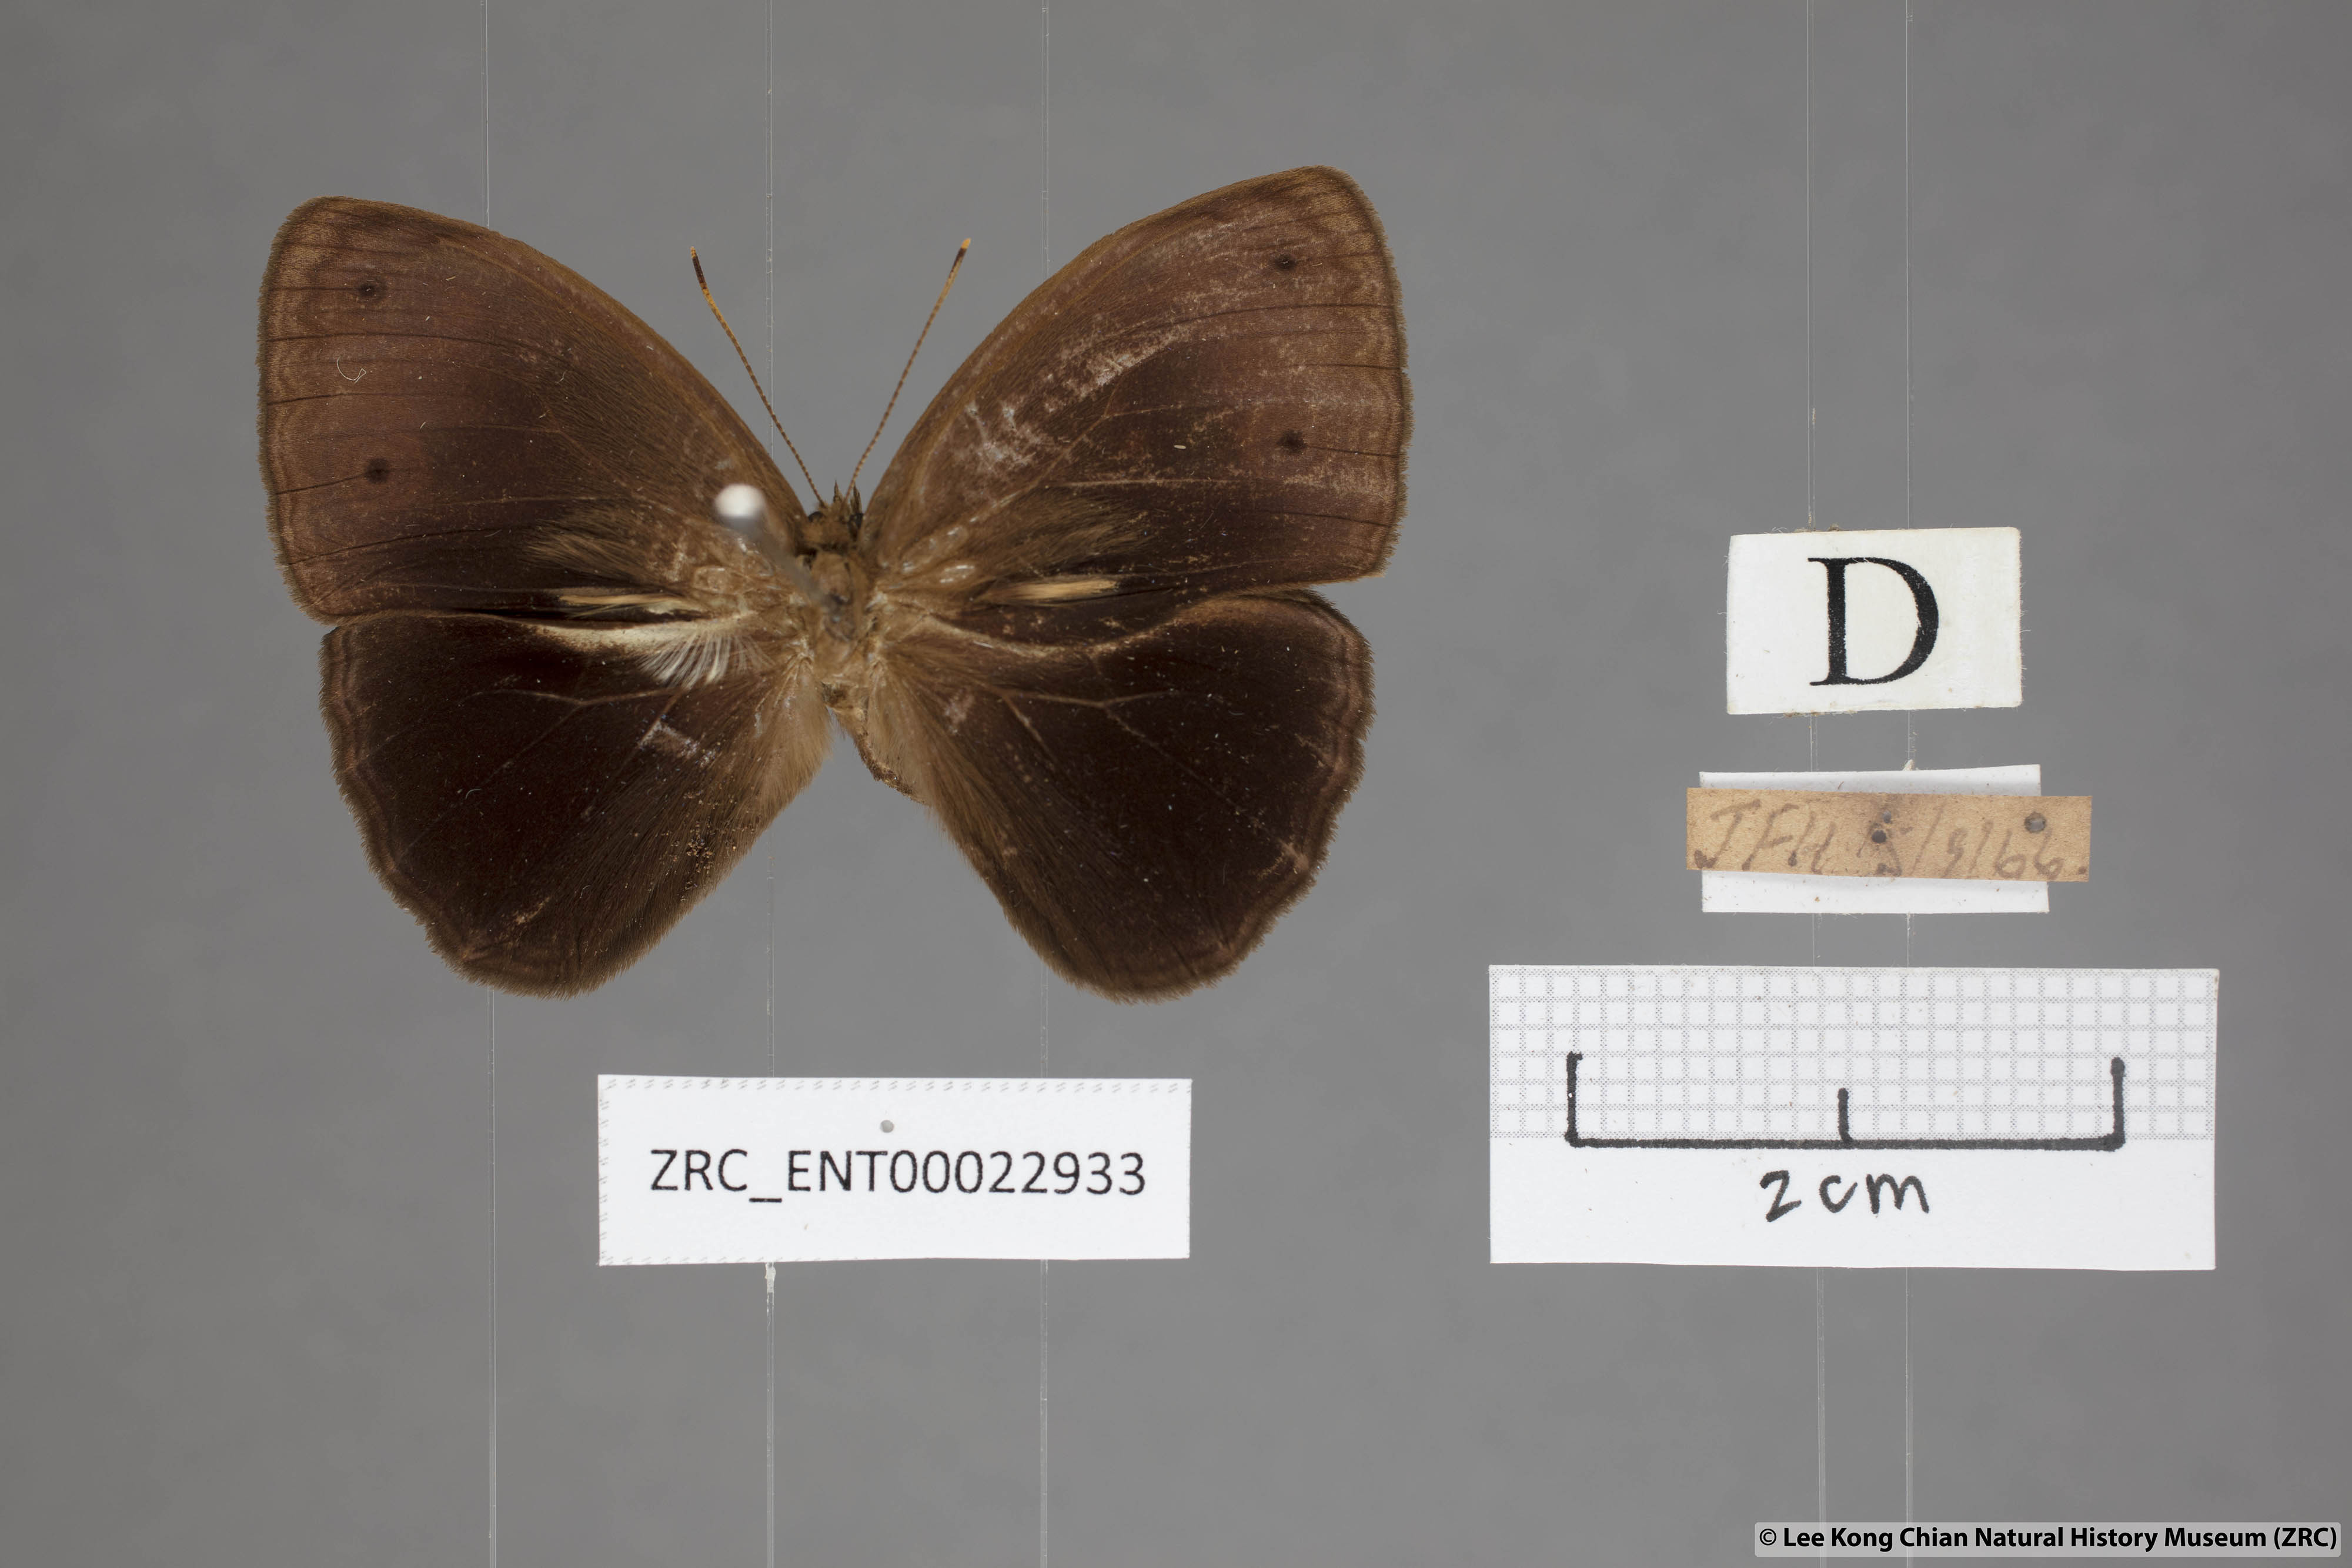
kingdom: Animalia
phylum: Arthropoda
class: Insecta
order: Lepidoptera
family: Nymphalidae
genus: Mycalesis
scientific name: Mycalesis maianeas
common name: Bandless bushbrown
